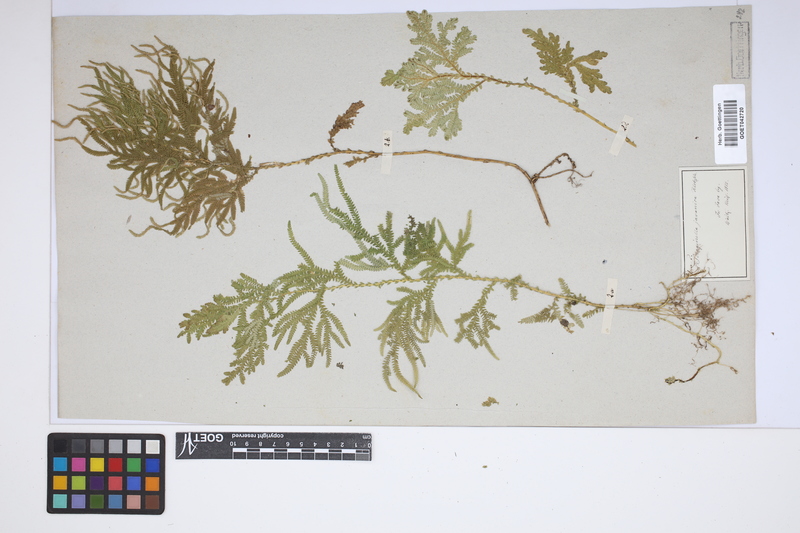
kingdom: Plantae
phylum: Tracheophyta
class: Lycopodiopsida
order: Selaginellales
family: Selaginellaceae
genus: Selaginella
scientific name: Selaginella ornata
